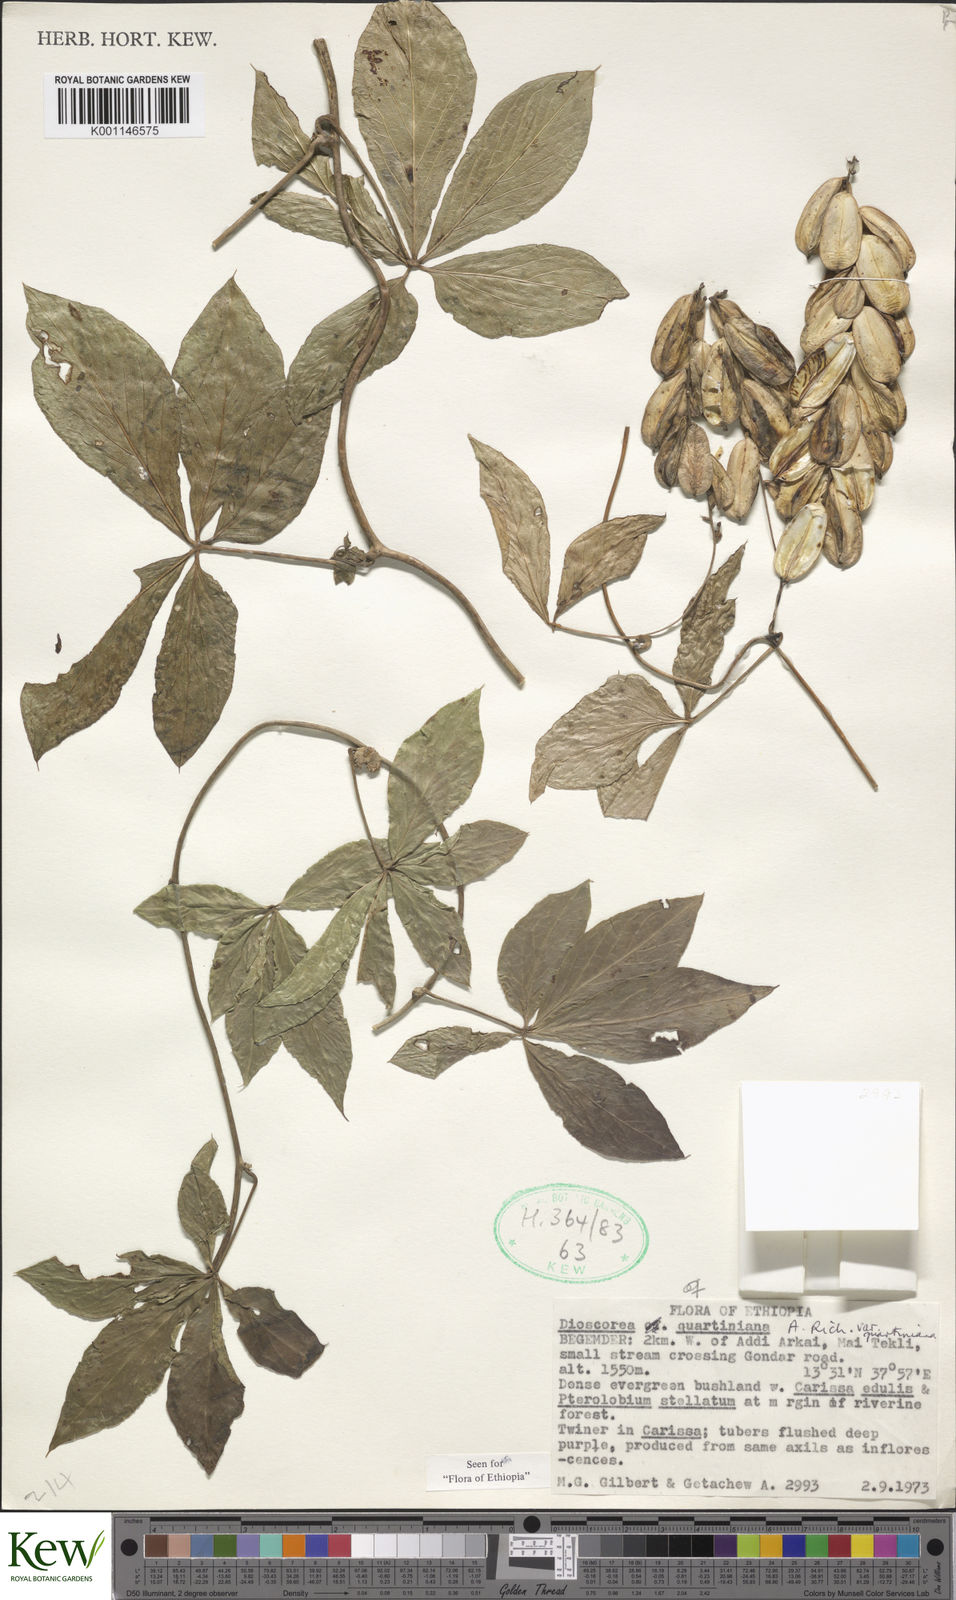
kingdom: Plantae
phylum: Tracheophyta
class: Liliopsida
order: Dioscoreales
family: Dioscoreaceae
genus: Dioscorea
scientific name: Dioscorea quartiniana
